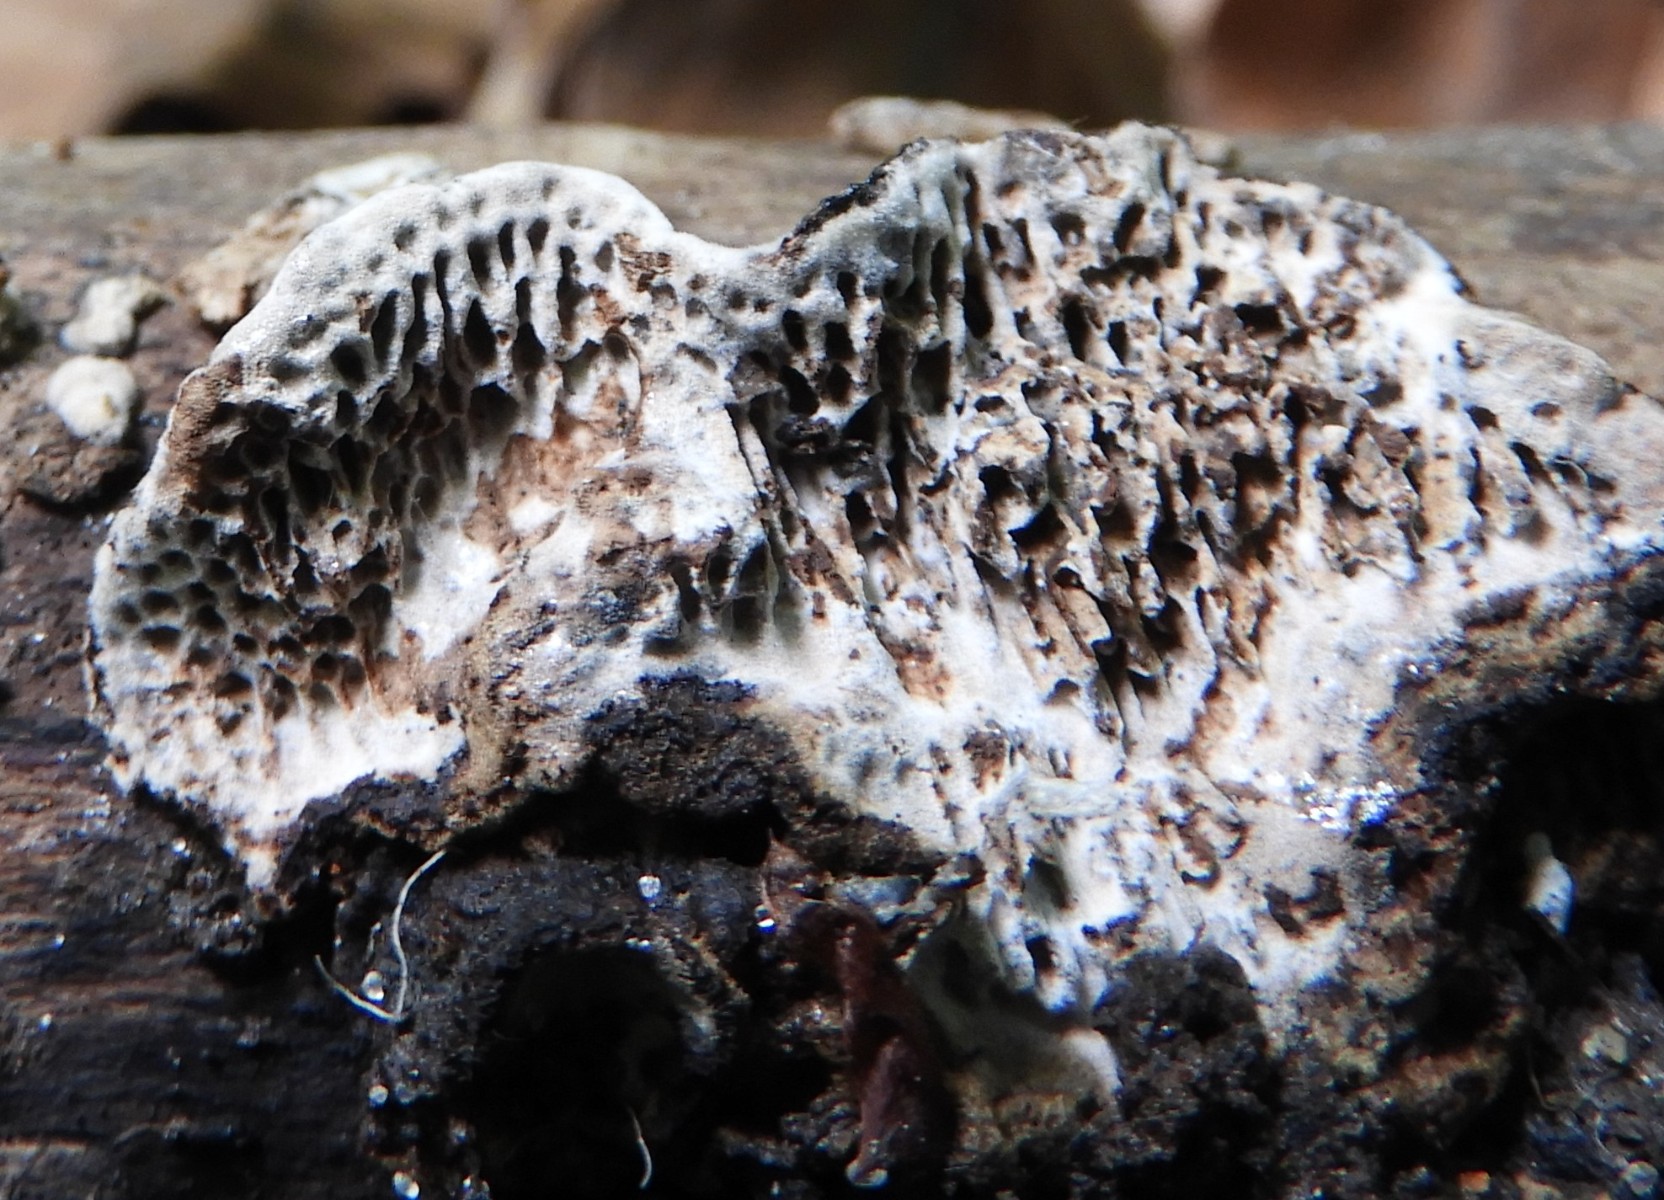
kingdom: Fungi
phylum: Basidiomycota
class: Agaricomycetes
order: Polyporales
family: Polyporaceae
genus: Podofomes
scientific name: Podofomes mollis
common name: blød begporesvamp
